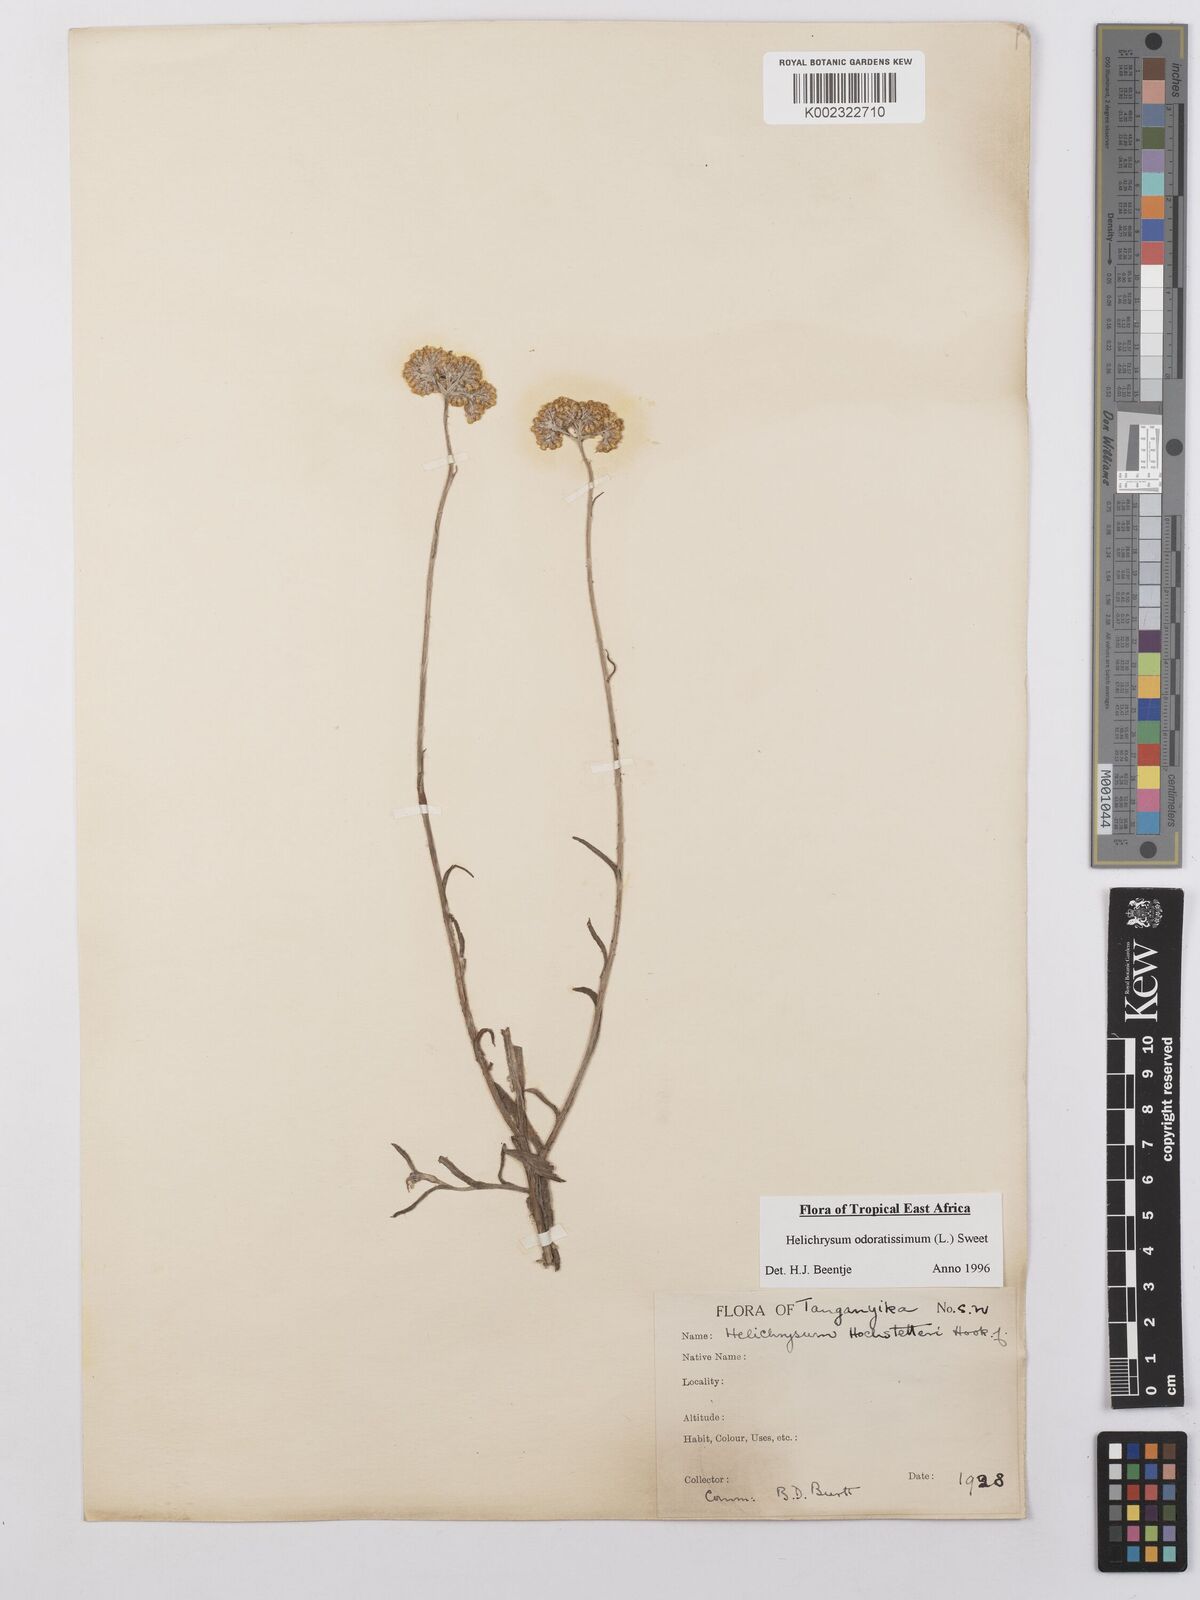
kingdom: Plantae
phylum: Tracheophyta
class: Magnoliopsida
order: Asterales
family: Asteraceae
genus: Helichrysum
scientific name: Helichrysum odoratissimum
